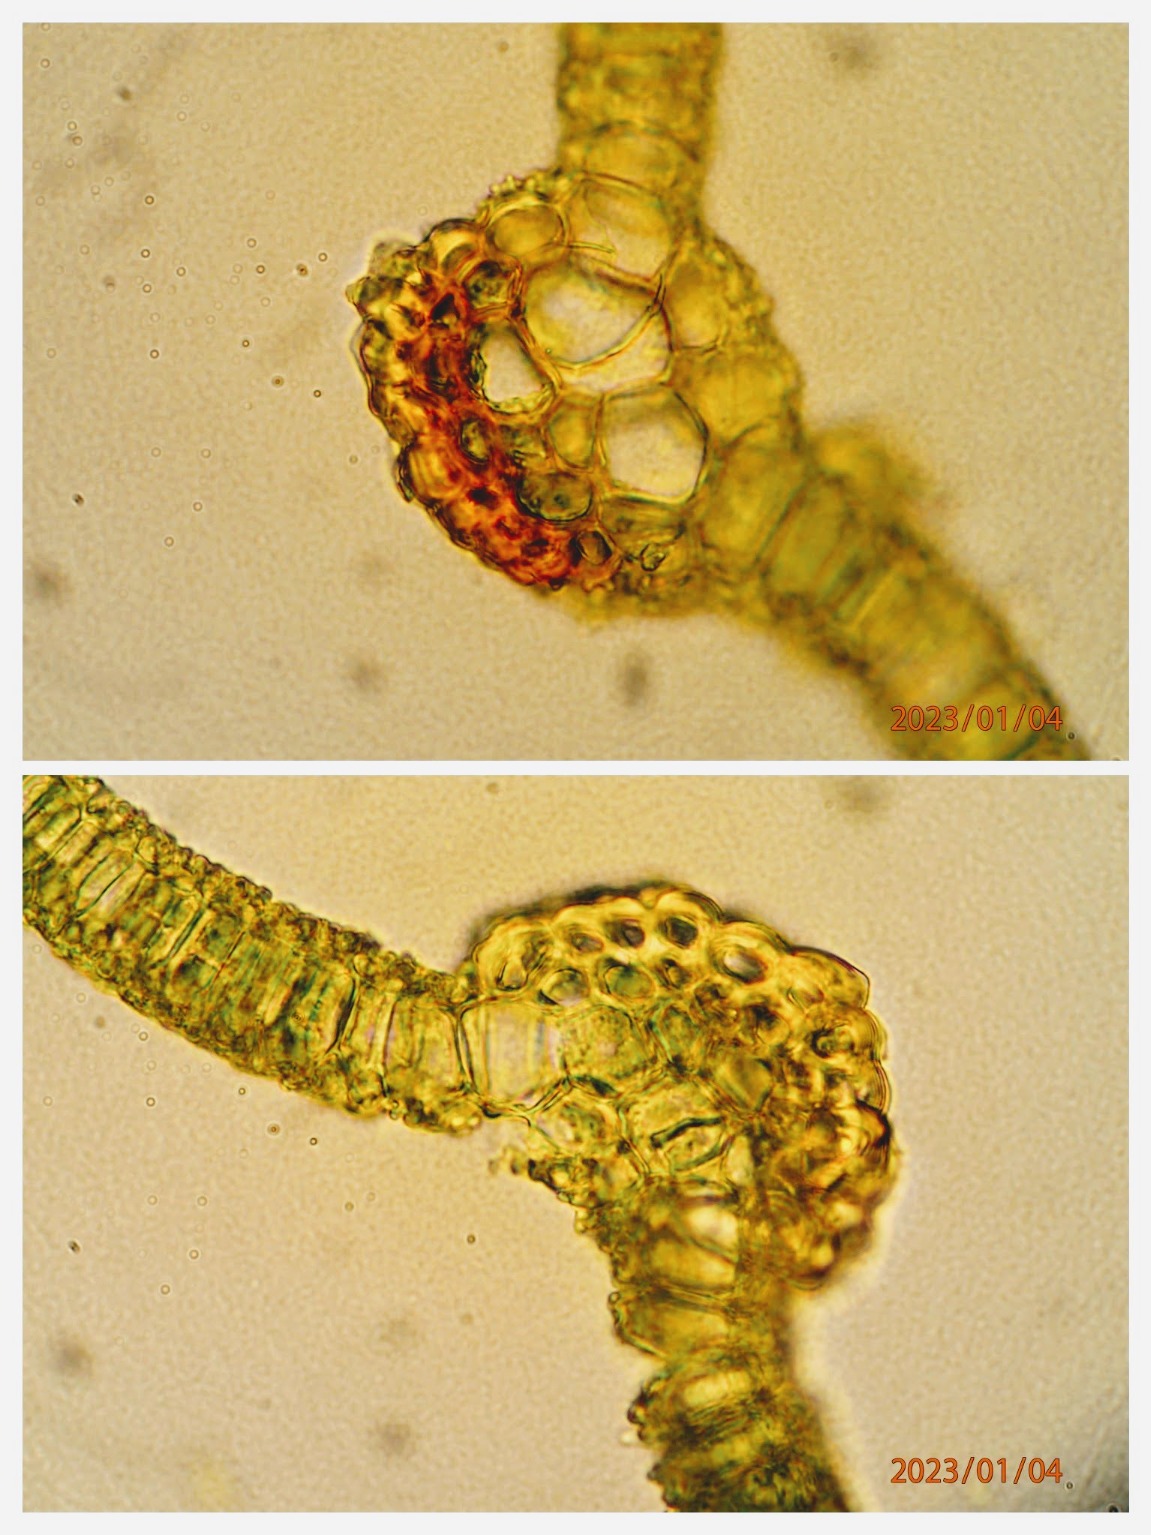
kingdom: Plantae
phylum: Bryophyta
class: Bryopsida
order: Pottiales
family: Pottiaceae
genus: Syntrichia
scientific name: Syntrichia virescens
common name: Grøn hårstjerne
